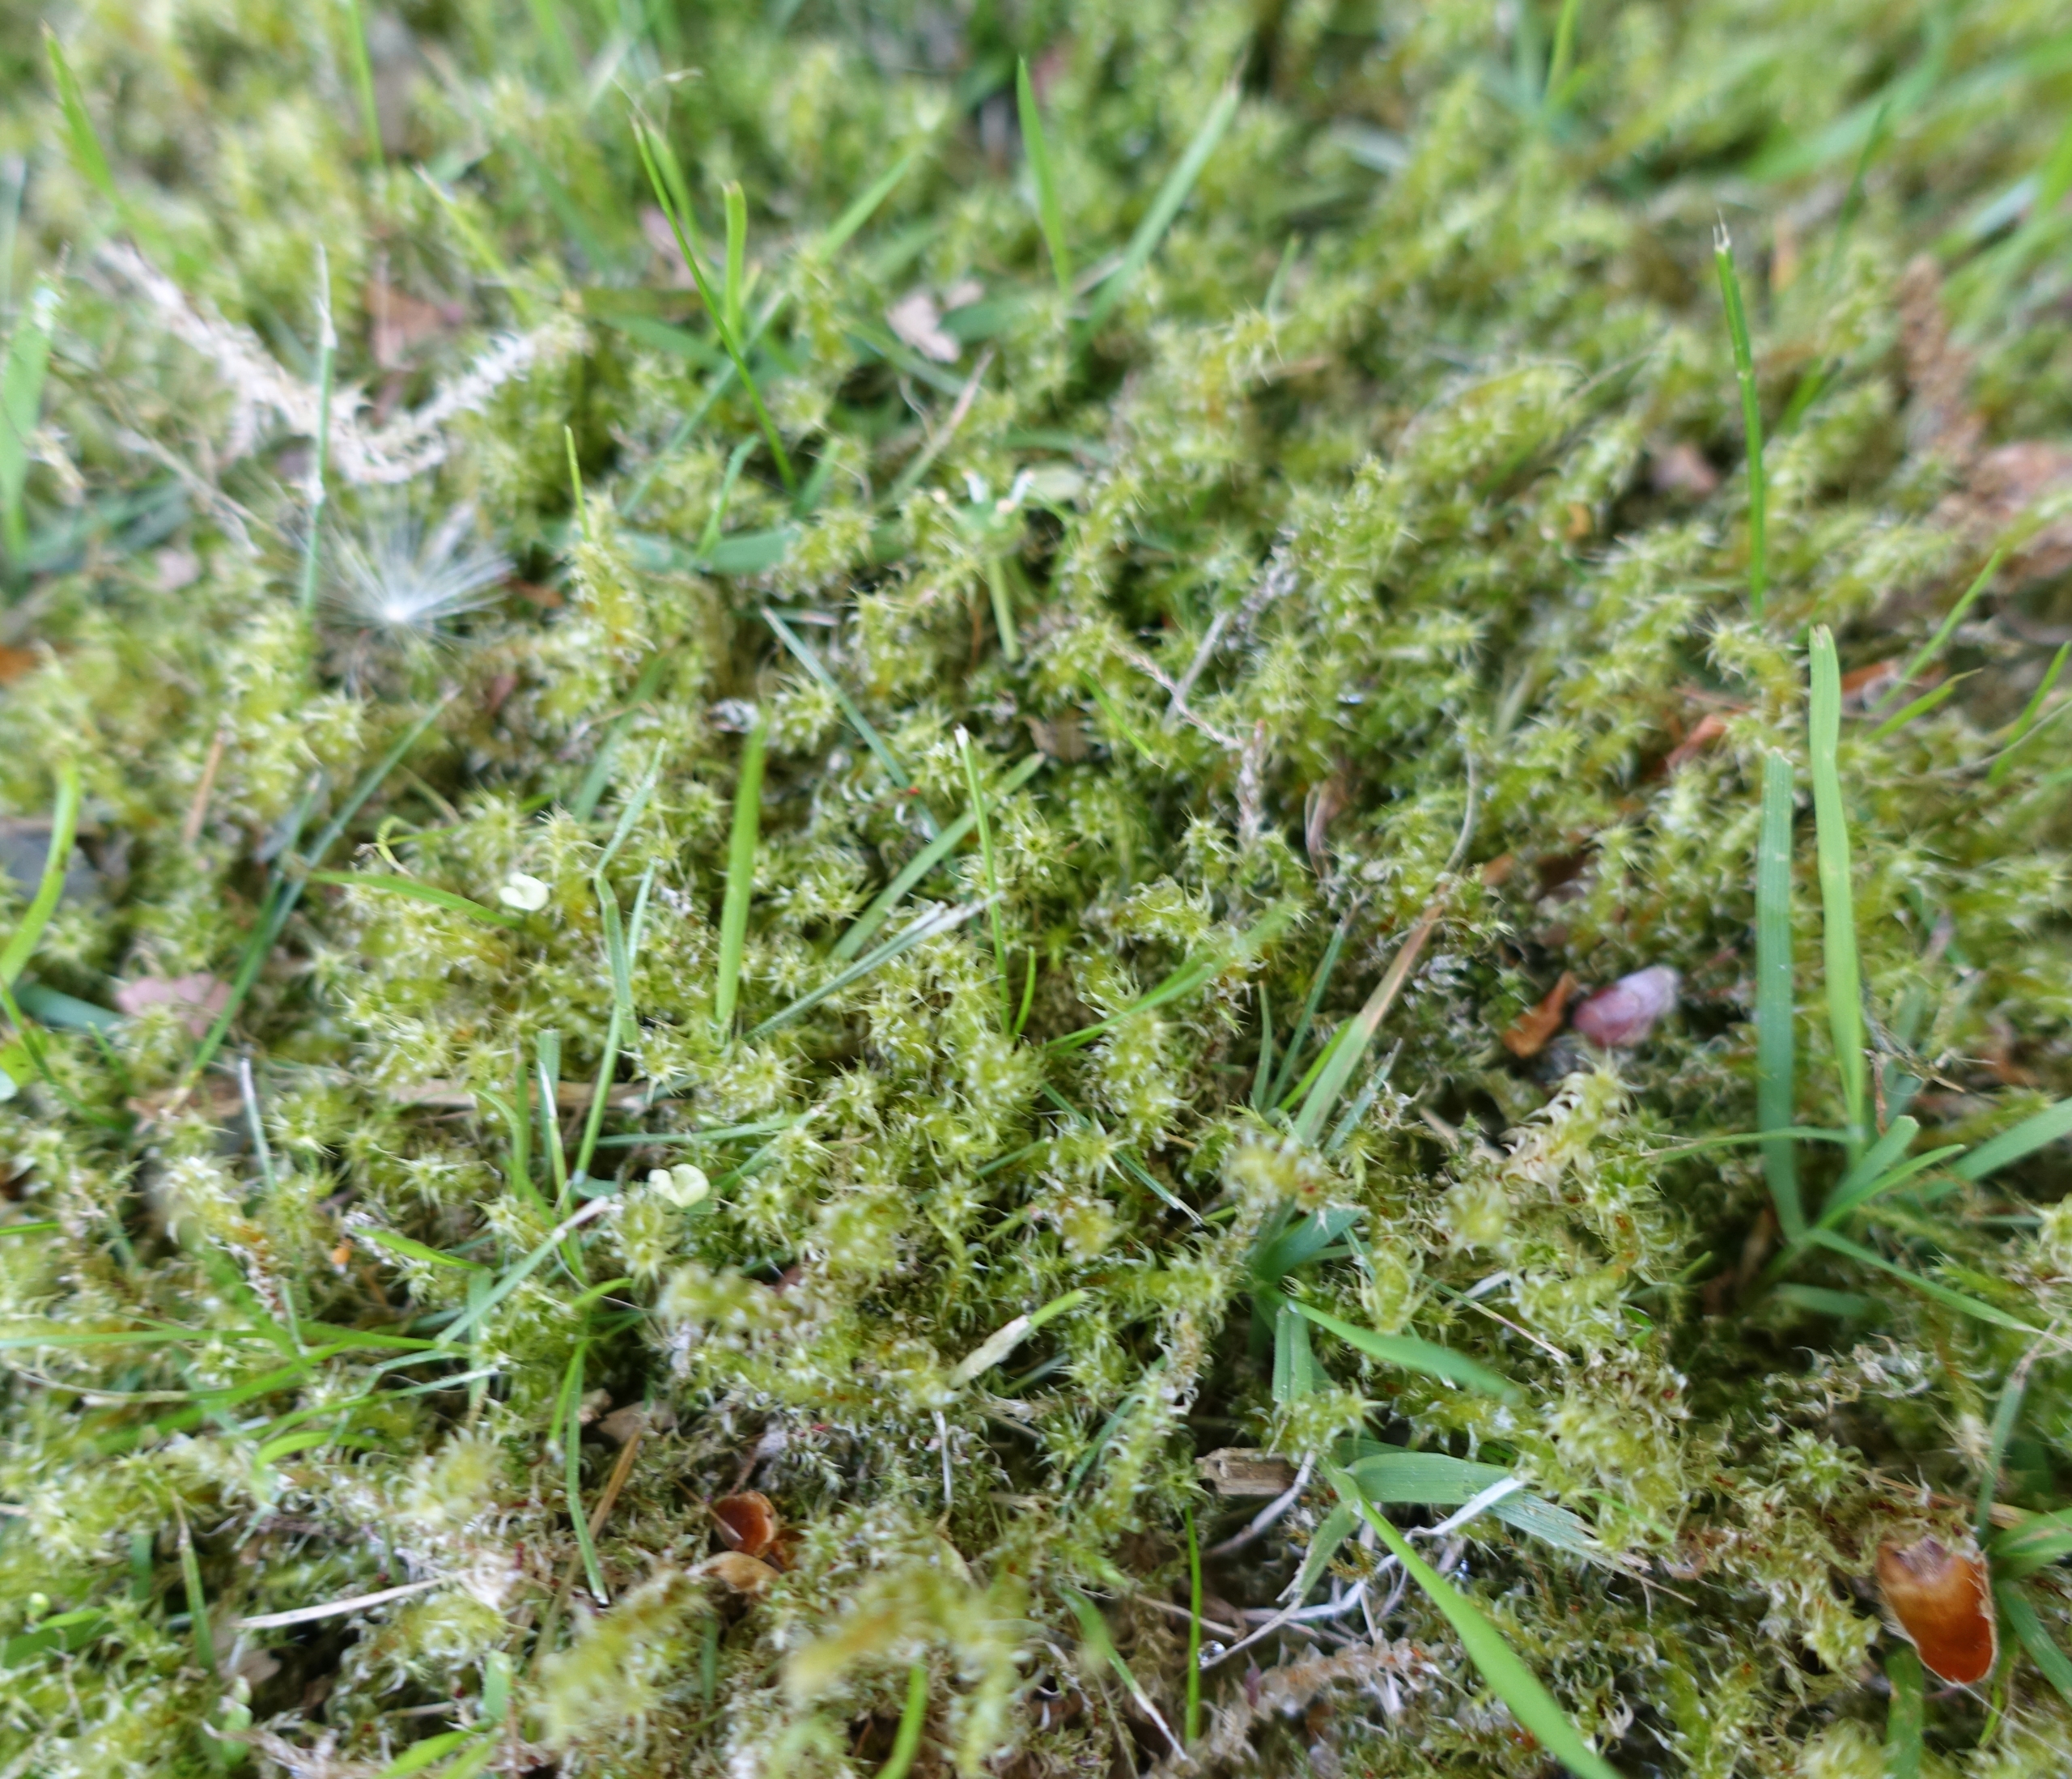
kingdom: Plantae
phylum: Bryophyta
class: Bryopsida
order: Hypnales
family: Hylocomiaceae
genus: Rhytidiadelphus
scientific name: Rhytidiadelphus squarrosus
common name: Plæne-kransemos
